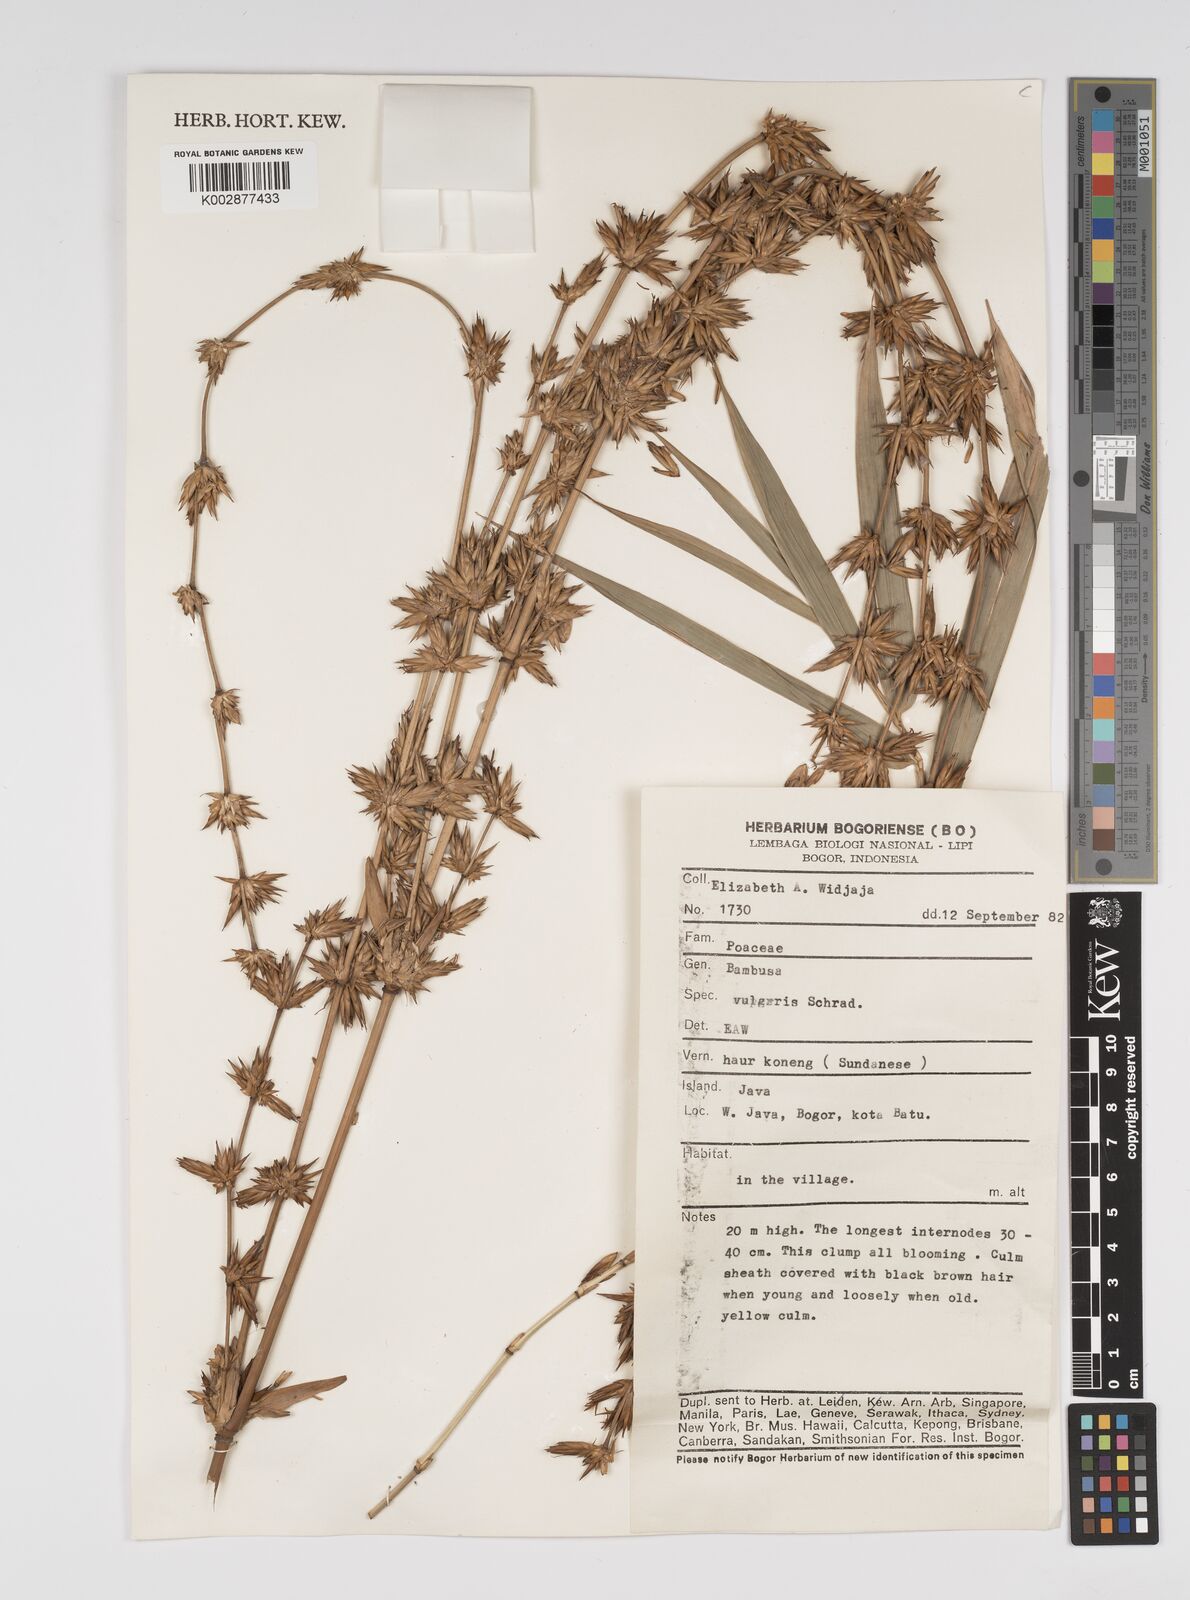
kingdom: Plantae
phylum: Tracheophyta
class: Liliopsida
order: Poales
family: Poaceae
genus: Bambusa
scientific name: Bambusa vulgaris
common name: Common bamboo
